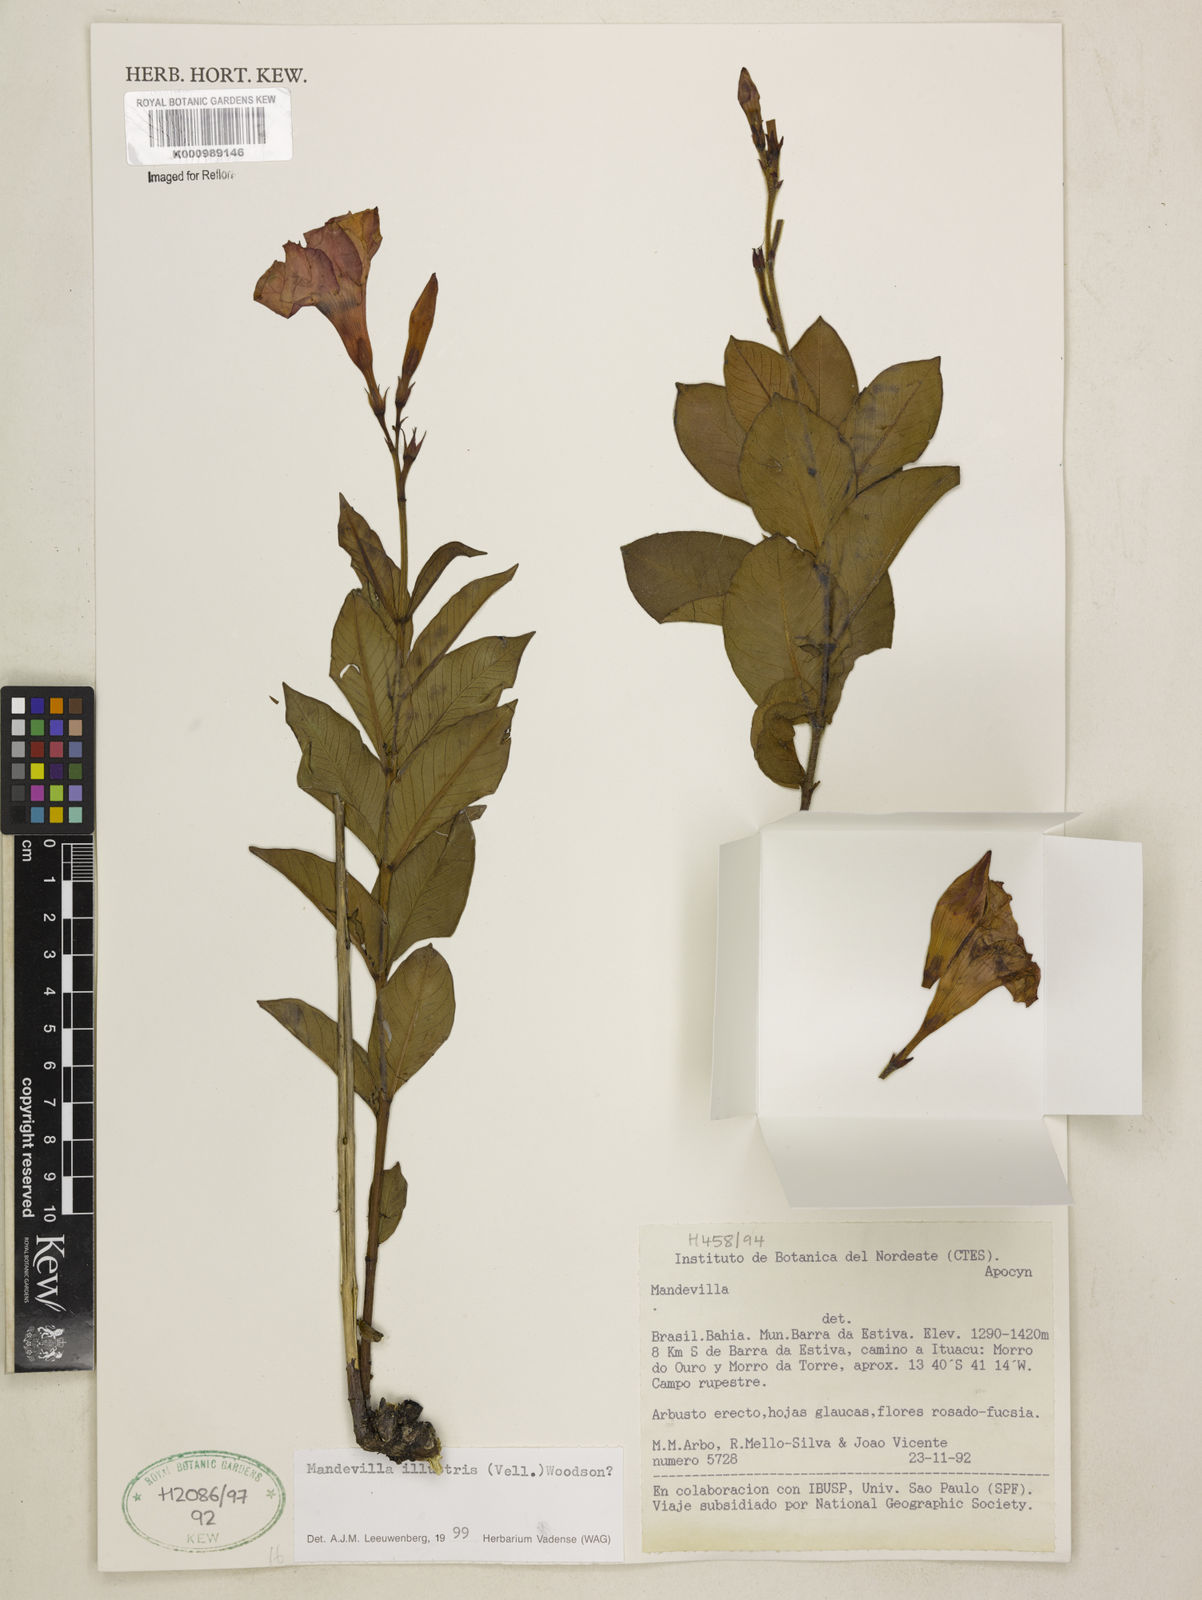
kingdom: Plantae
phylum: Tracheophyta
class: Magnoliopsida
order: Gentianales
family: Apocynaceae
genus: Mandevilla
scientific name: Mandevilla
